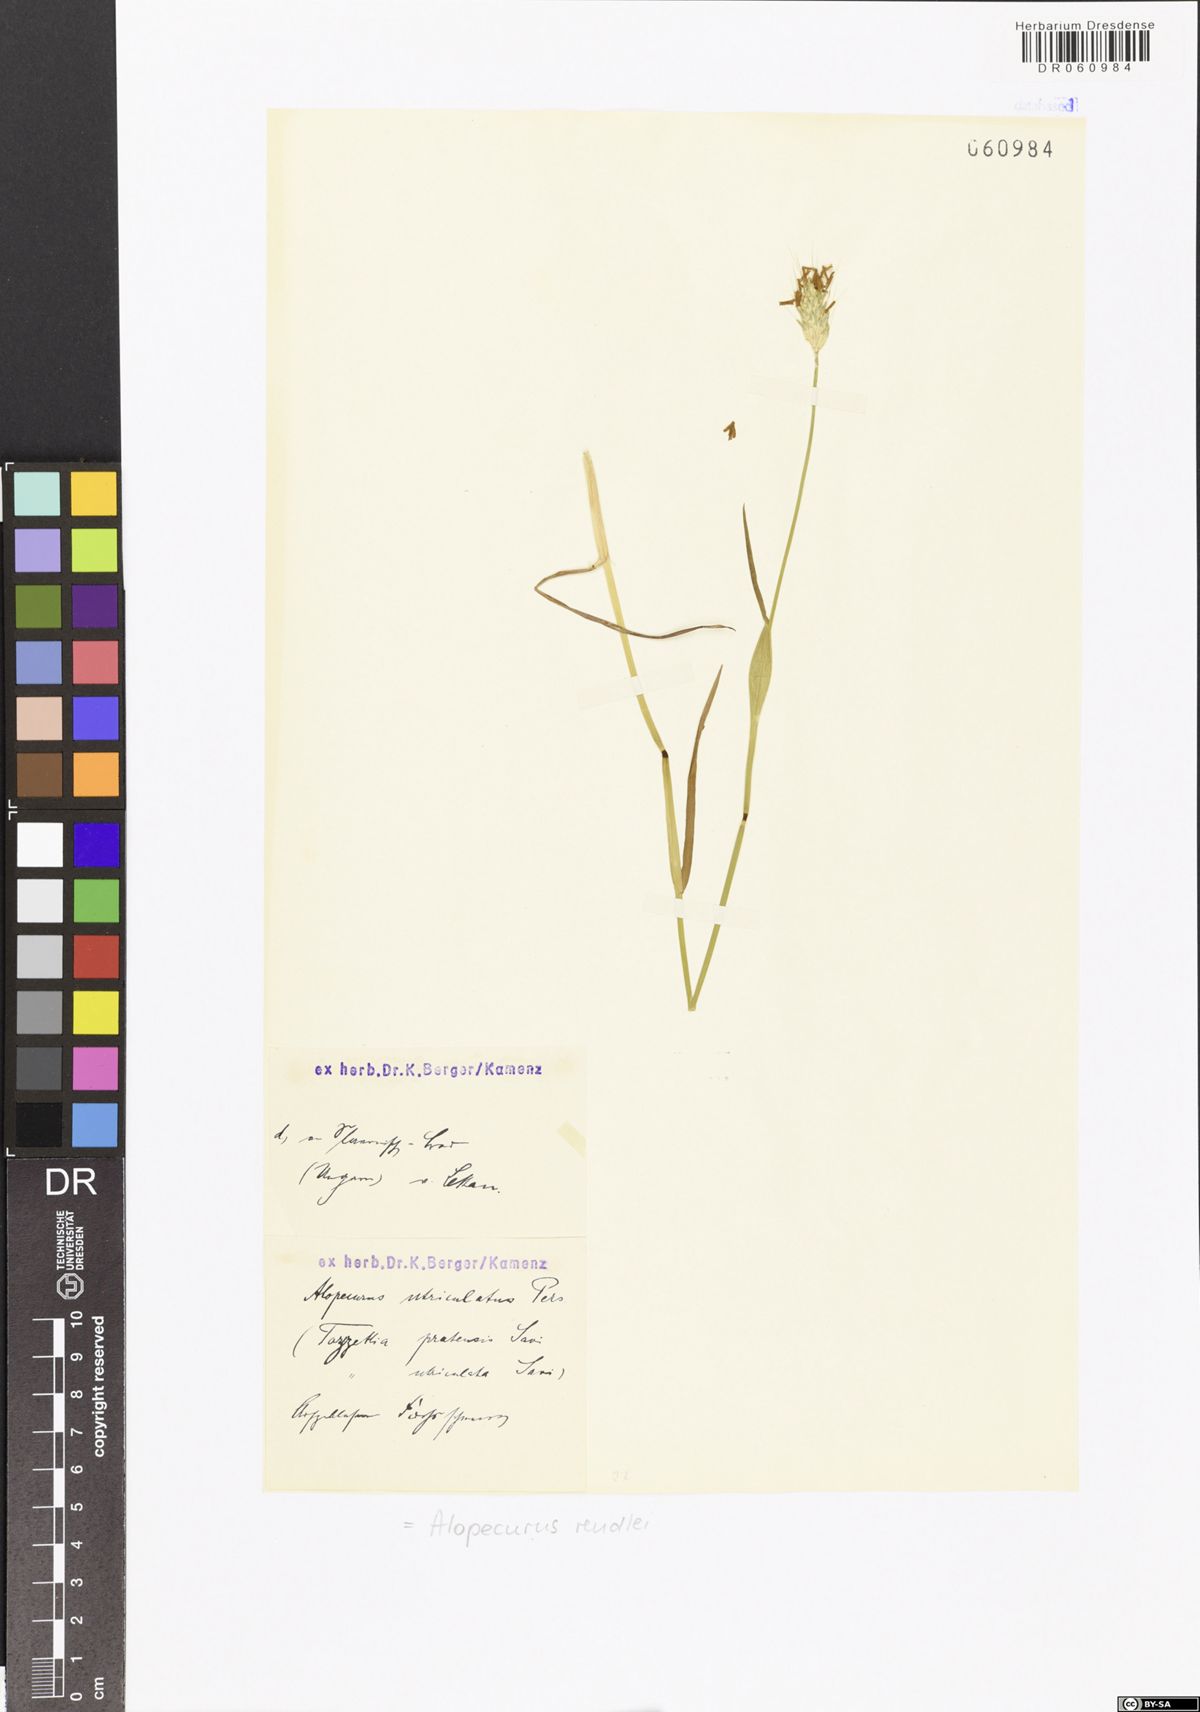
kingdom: Plantae
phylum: Tracheophyta
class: Liliopsida
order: Poales
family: Poaceae
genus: Alopecurus
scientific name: Alopecurus rendlei
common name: Rendle's meadow foxtail
